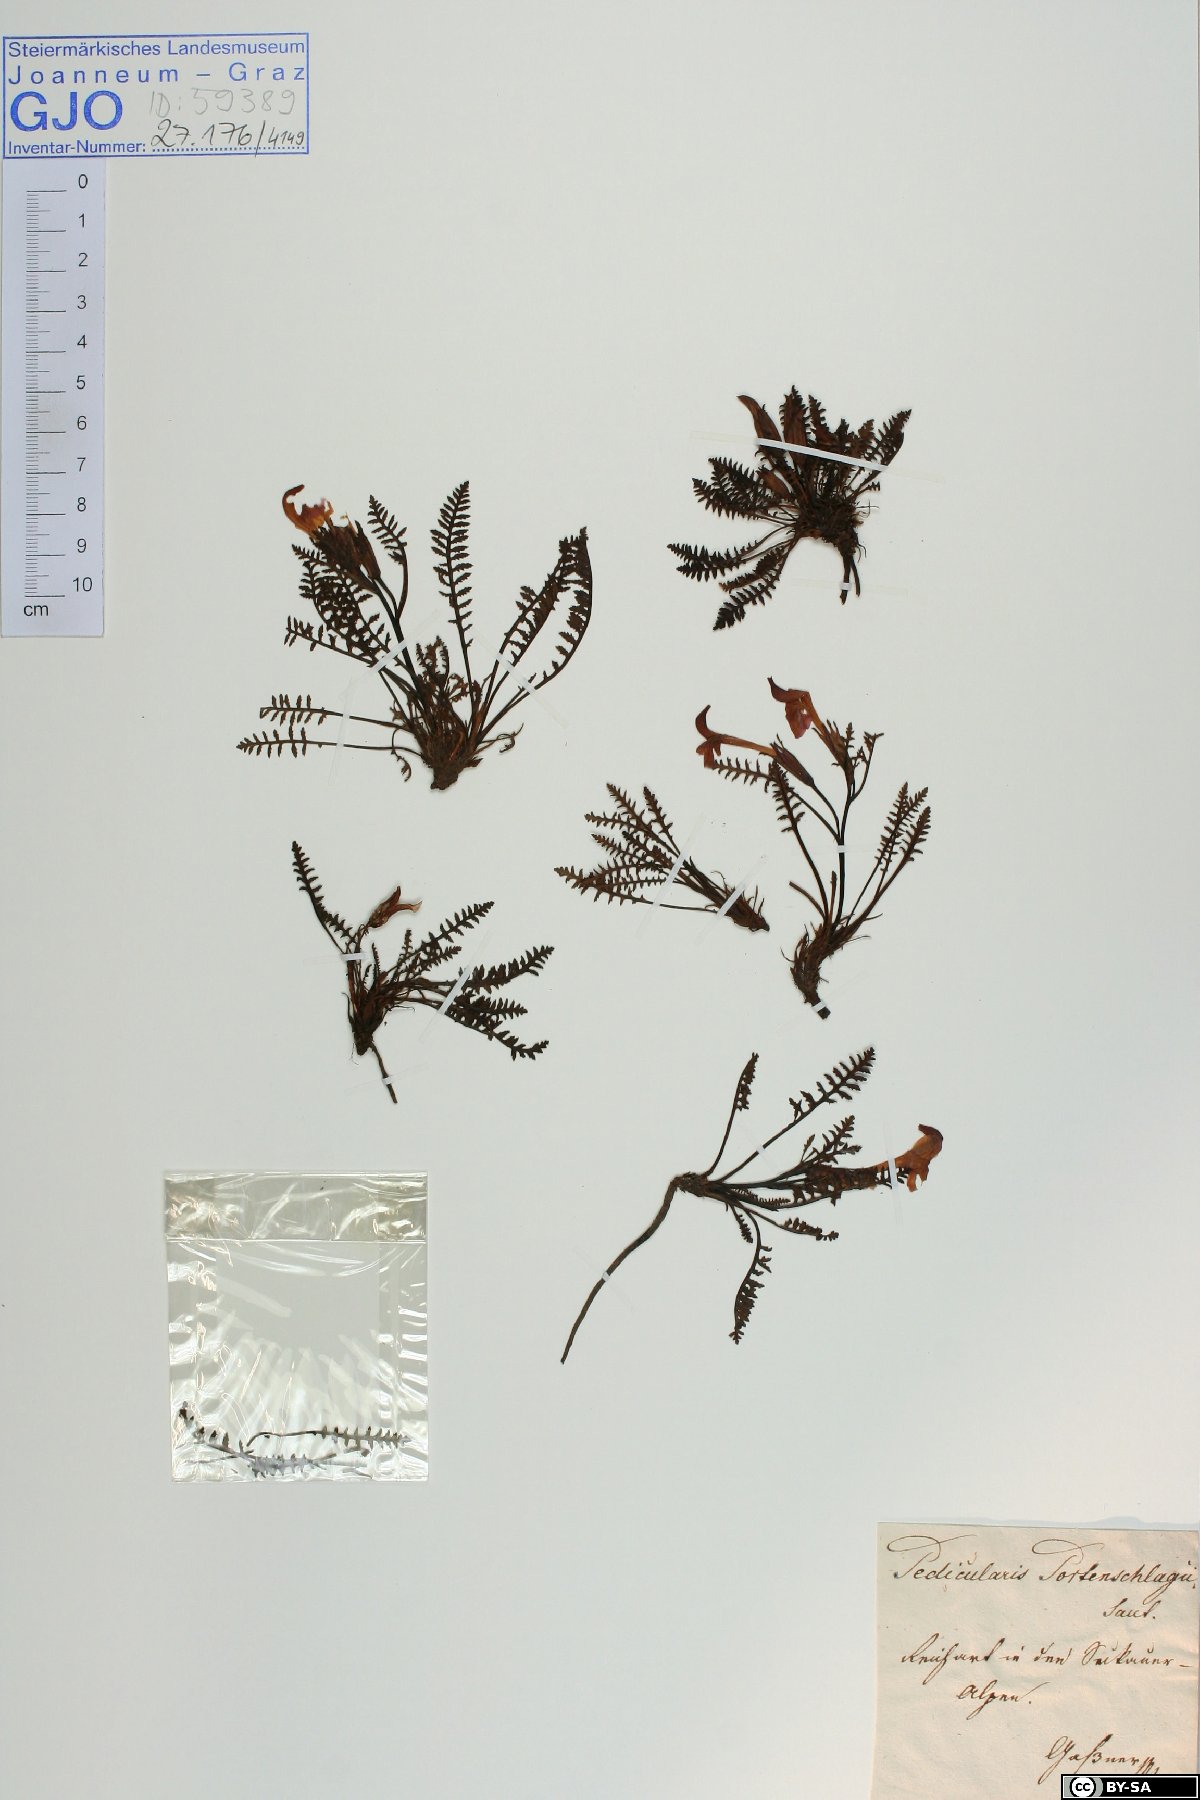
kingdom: Plantae
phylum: Tracheophyta
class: Magnoliopsida
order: Lamiales
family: Orobanchaceae
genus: Pedicularis
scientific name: Pedicularis portenschlagii
